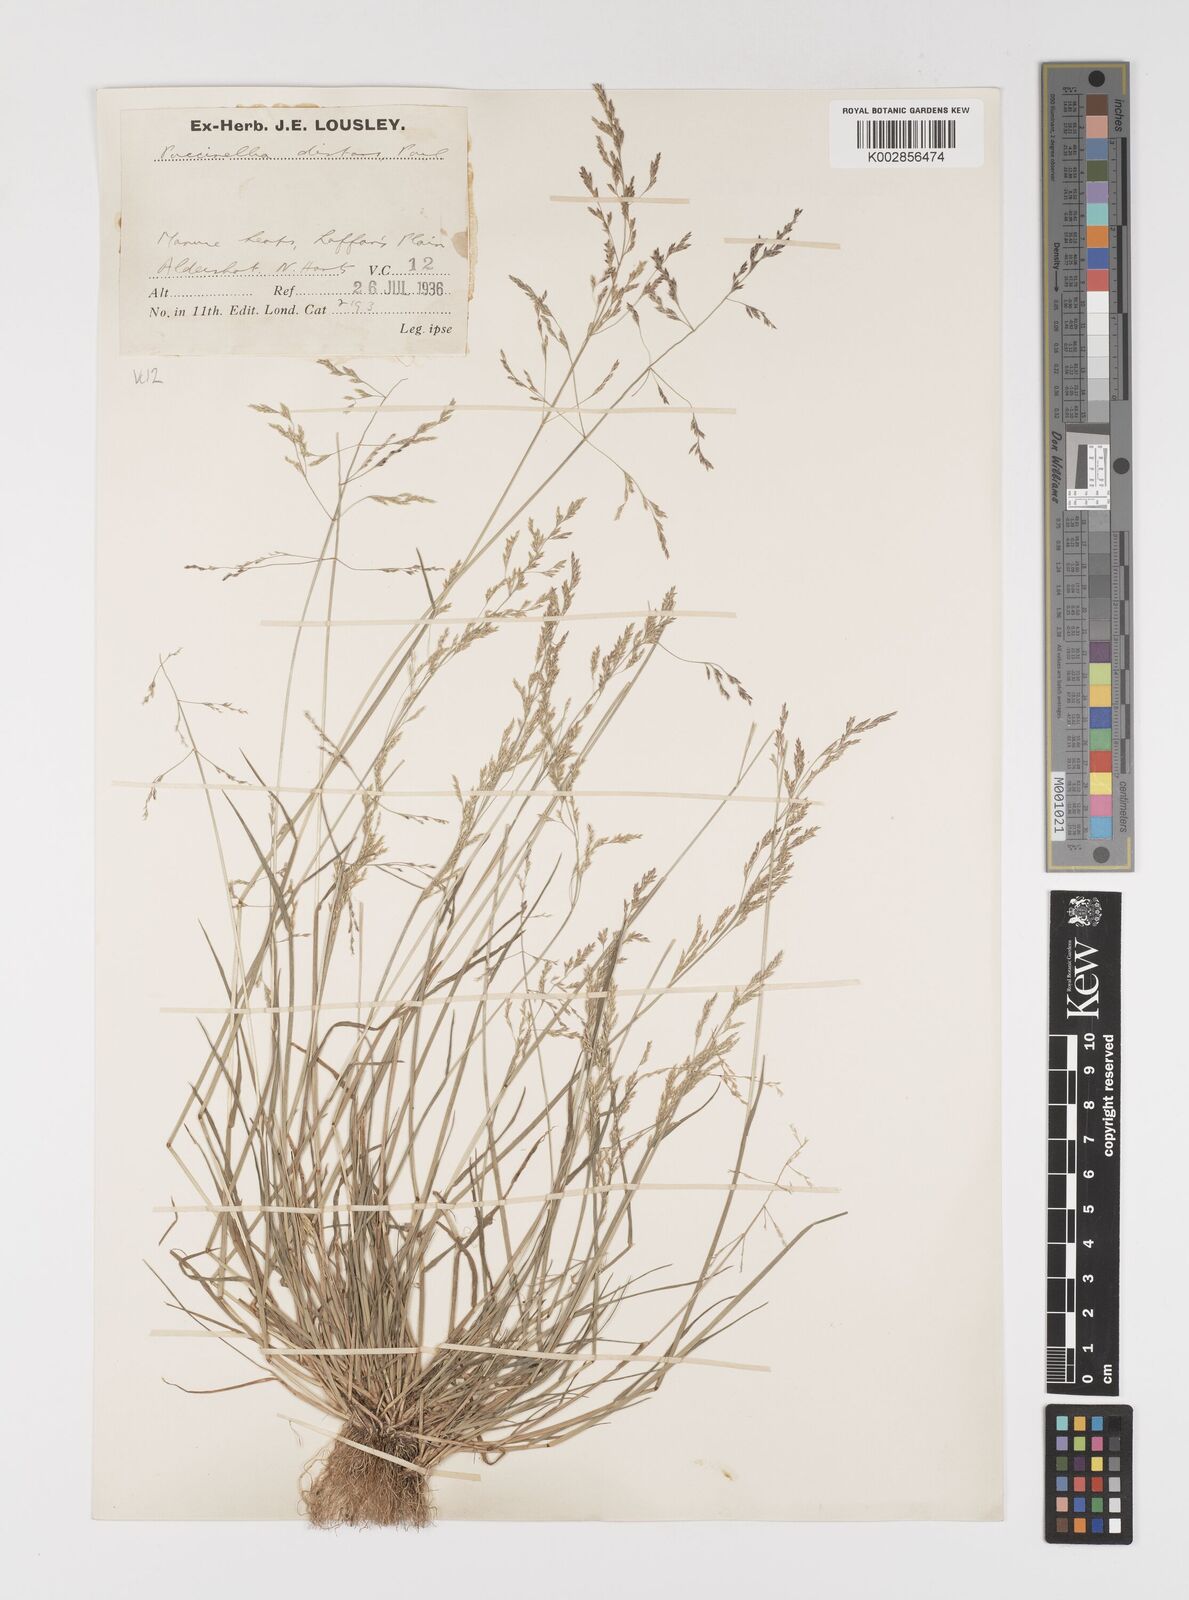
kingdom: Plantae
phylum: Tracheophyta
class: Liliopsida
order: Poales
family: Poaceae
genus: Puccinellia
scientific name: Puccinellia distans
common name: Weeping alkaligrass
